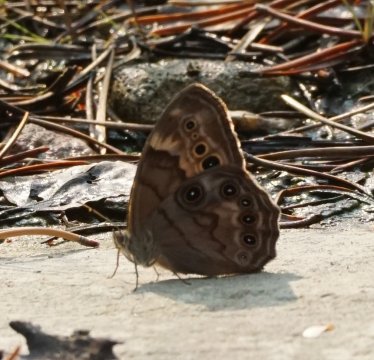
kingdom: Animalia
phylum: Arthropoda
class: Insecta
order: Lepidoptera
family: Nymphalidae
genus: Lethe
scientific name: Lethe anthedon
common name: Northern Pearly-Eye
